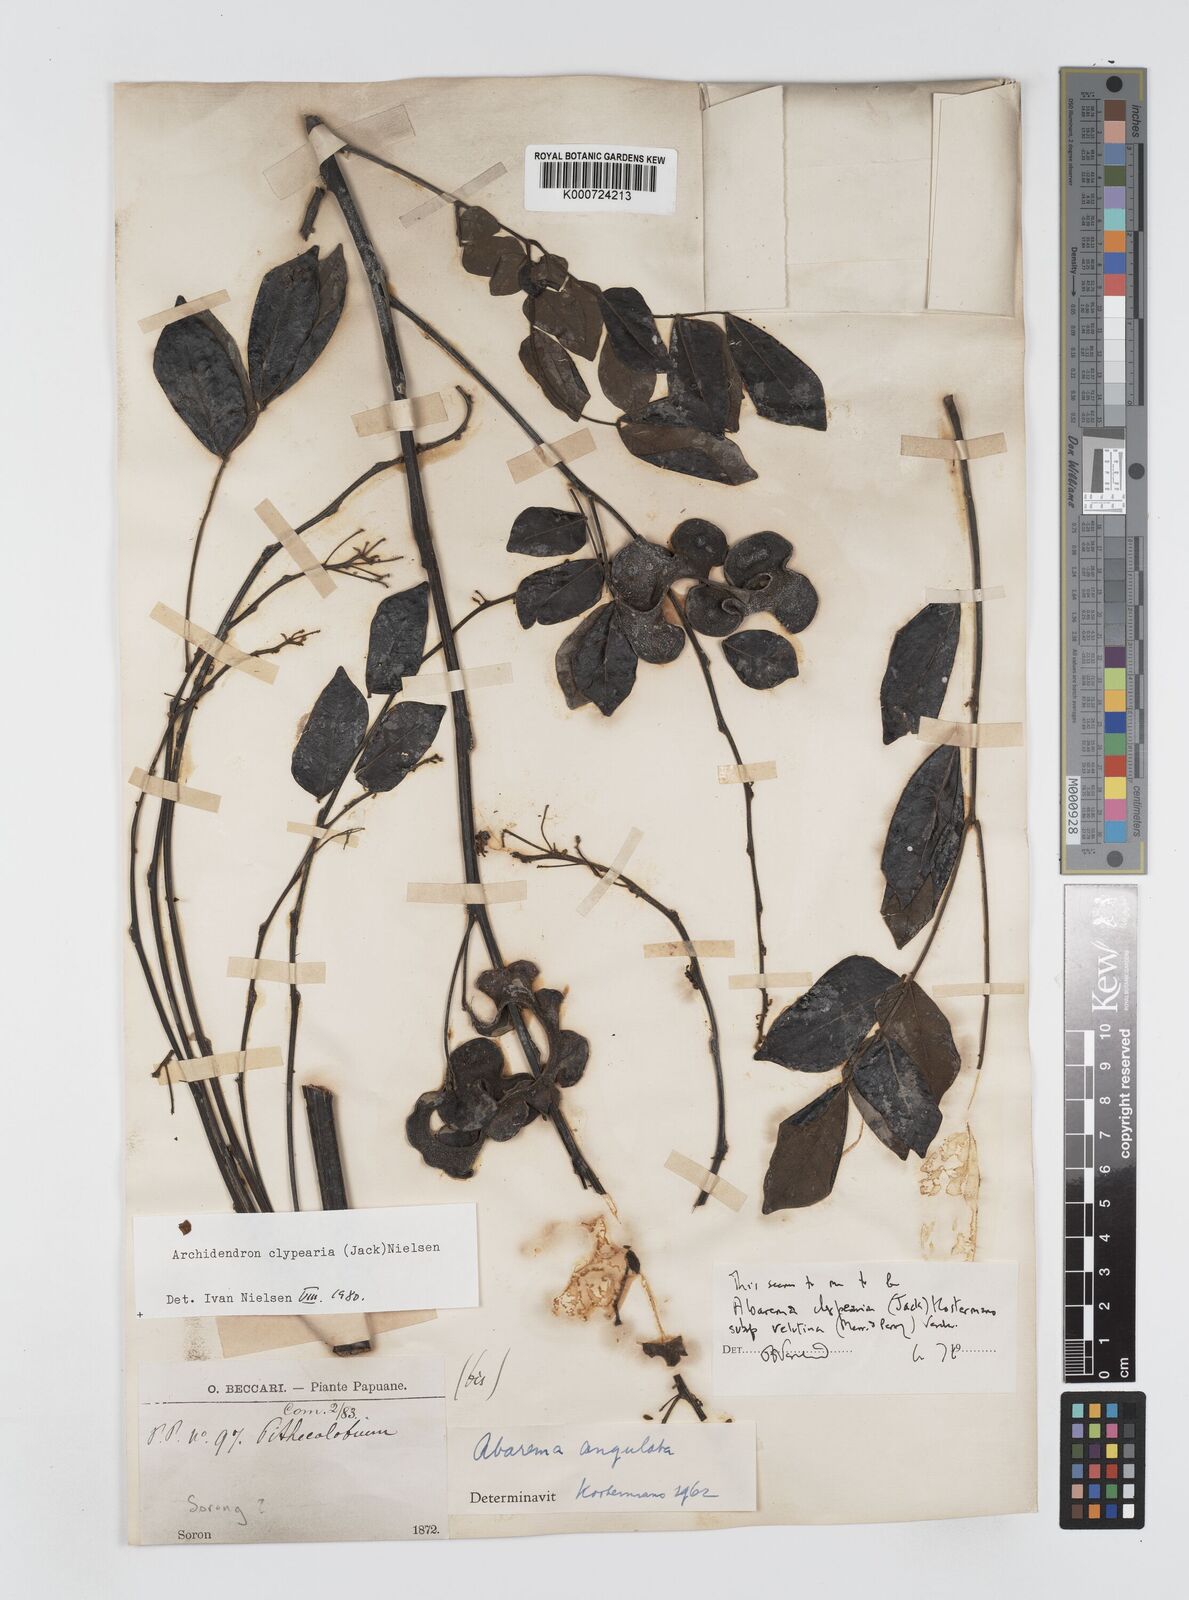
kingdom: Plantae
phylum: Tracheophyta
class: Magnoliopsida
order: Fabales
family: Fabaceae
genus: Archidendron
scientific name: Archidendron clypearia
